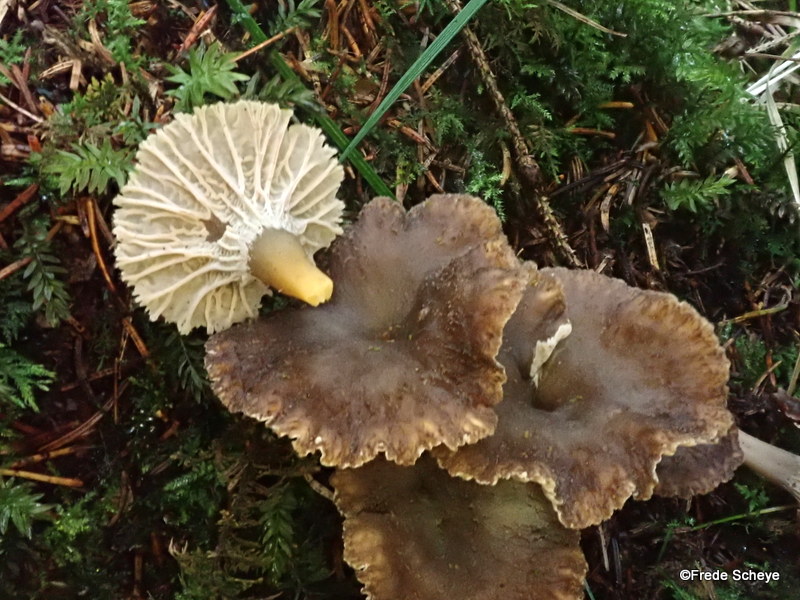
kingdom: Fungi
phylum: Basidiomycota
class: Agaricomycetes
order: Cantharellales
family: Hydnaceae
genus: Craterellus
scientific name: Craterellus tubaeformis
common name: tragt-kantarel
